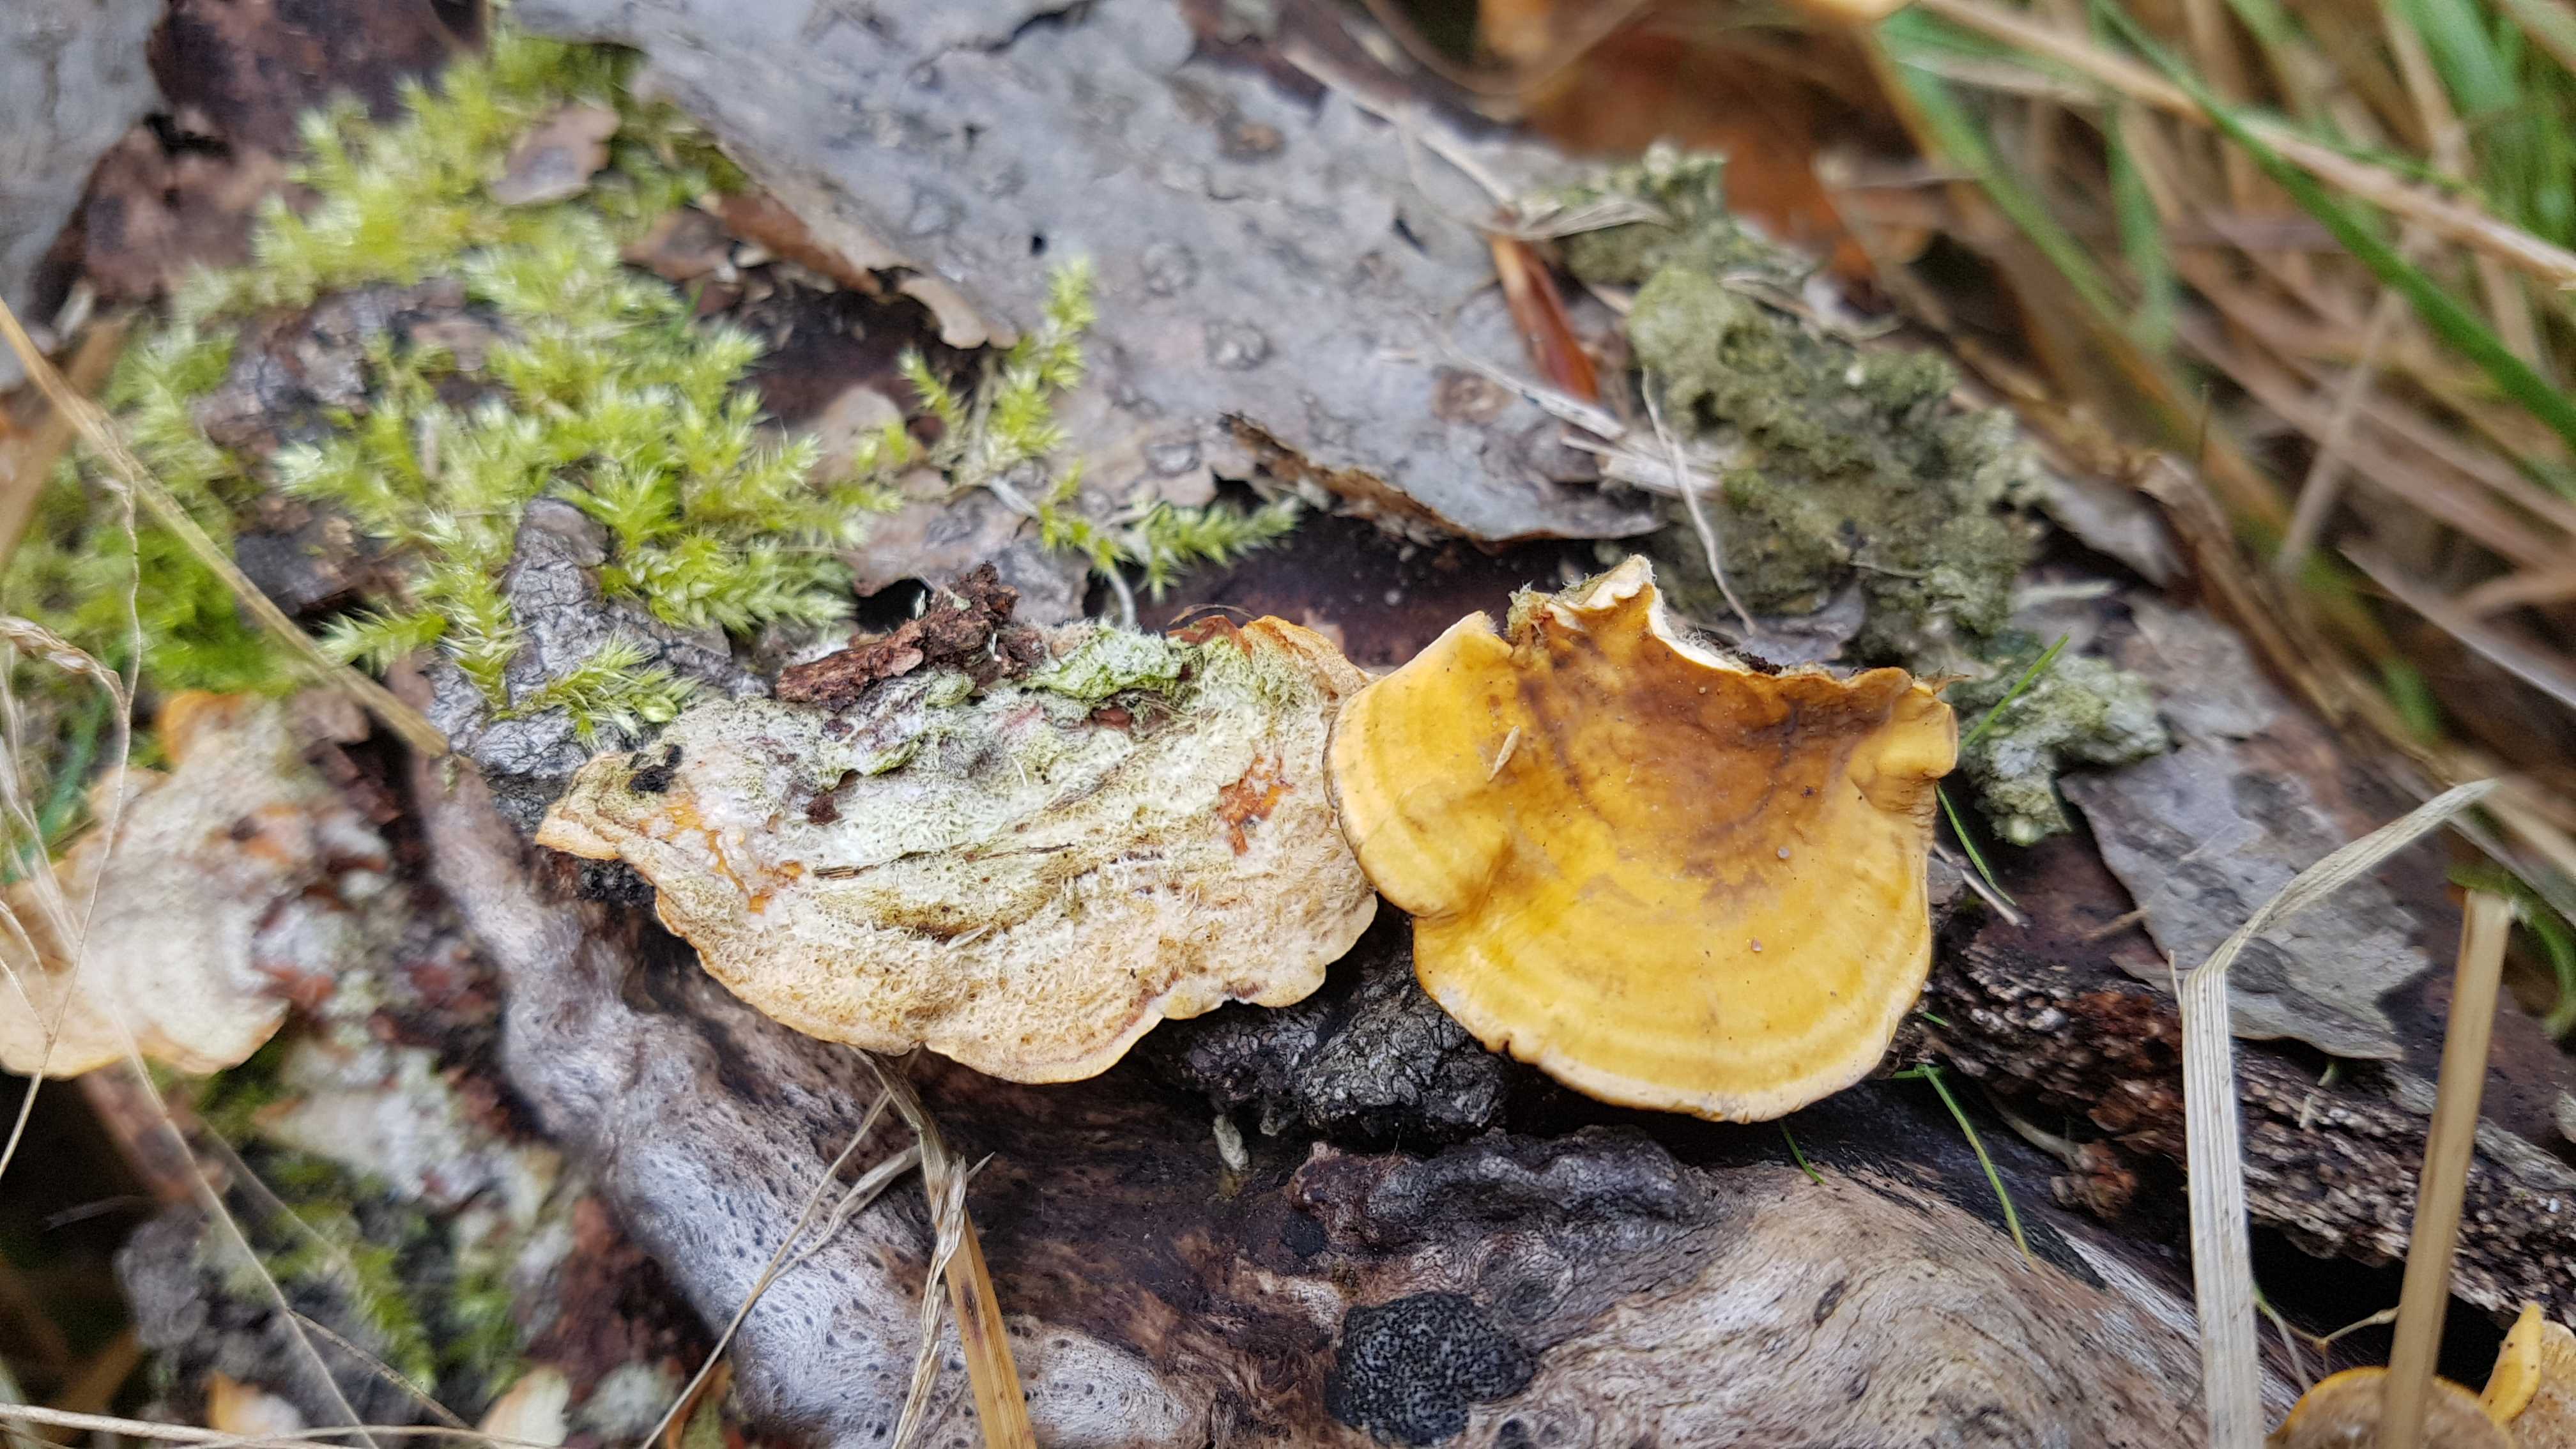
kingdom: Fungi
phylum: Basidiomycota
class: Agaricomycetes
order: Russulales
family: Stereaceae
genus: Stereum
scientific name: Stereum hirsutum
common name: håret lædersvamp
